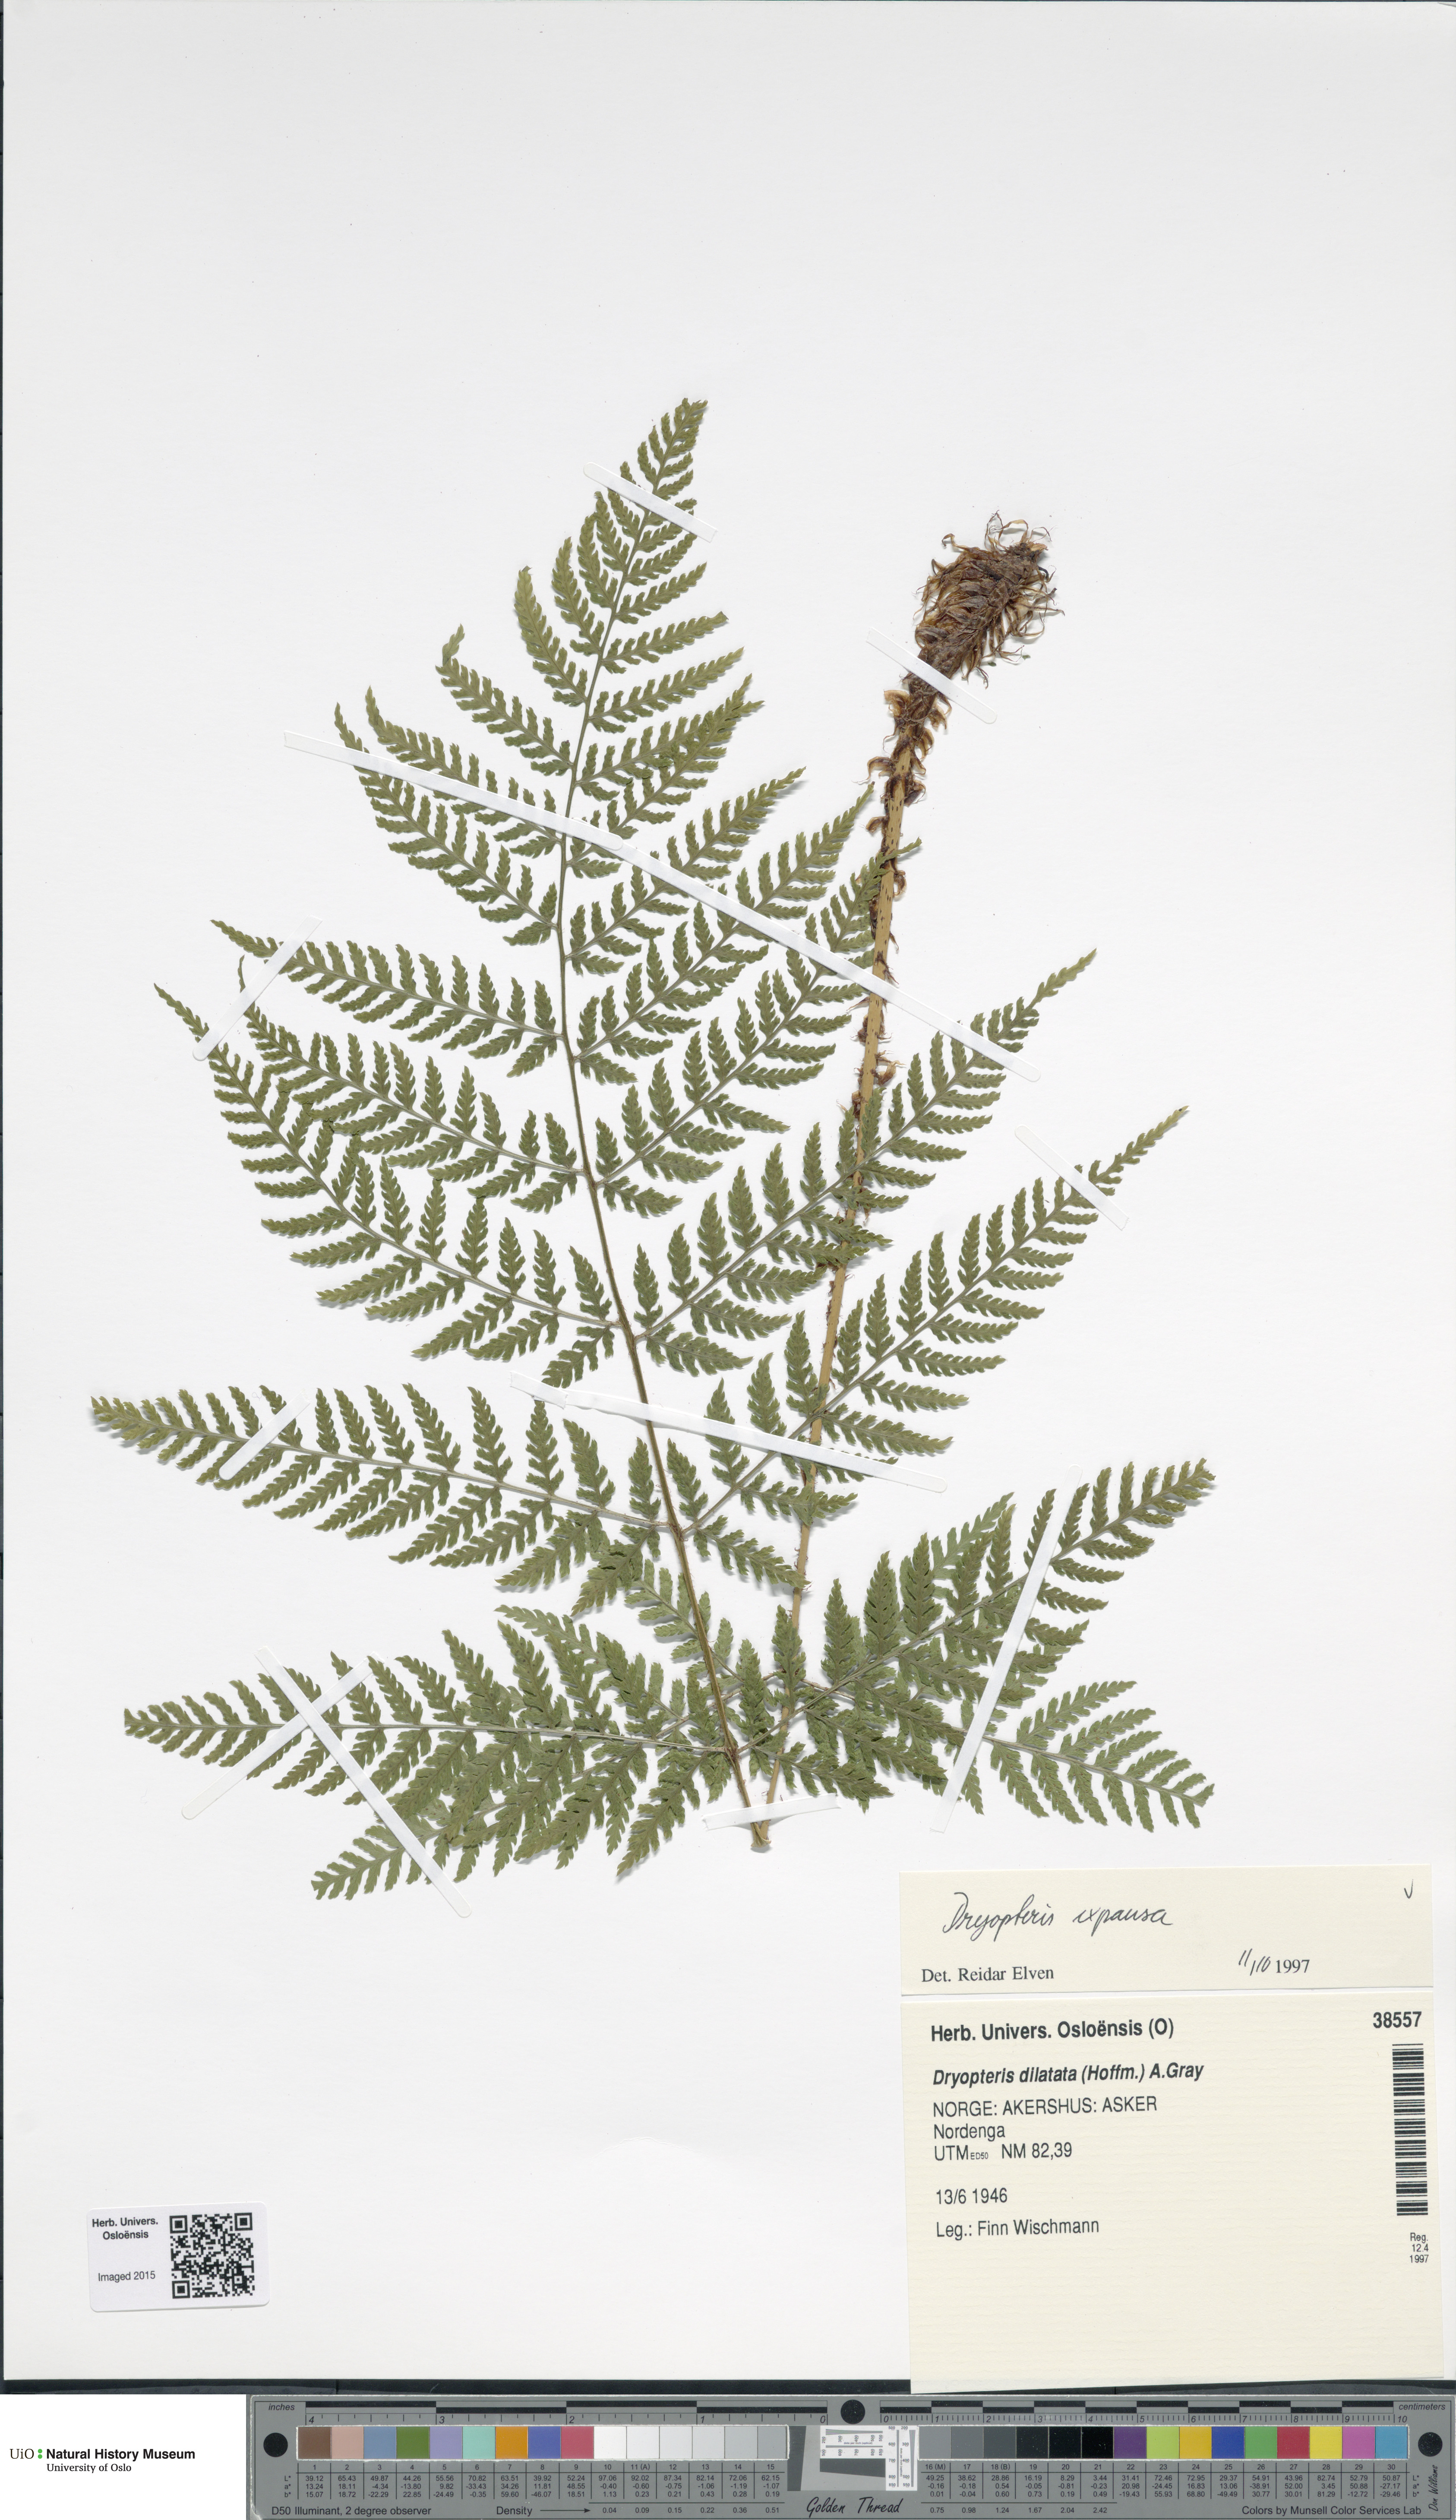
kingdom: Plantae
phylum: Tracheophyta
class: Polypodiopsida
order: Polypodiales
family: Dryopteridaceae
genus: Dryopteris
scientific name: Dryopteris expansa
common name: Northern buckler fern
